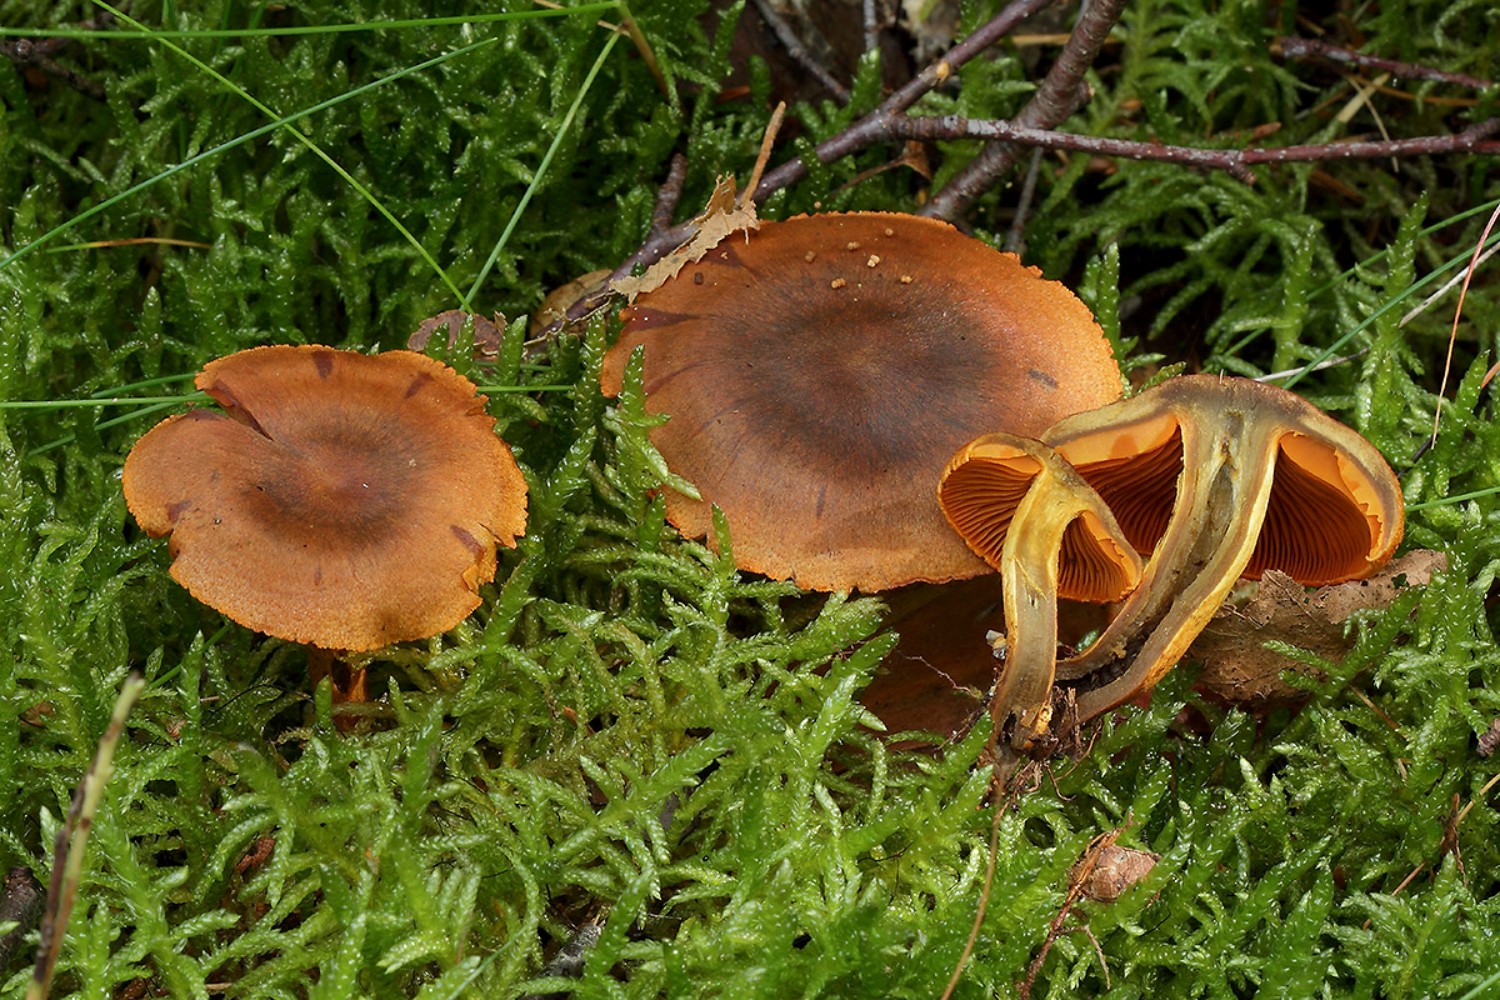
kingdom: Fungi
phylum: Basidiomycota
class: Agaricomycetes
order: Agaricales
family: Cortinariaceae
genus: Cortinarius
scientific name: Cortinarius malicorius
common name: grønkødet slørhat
